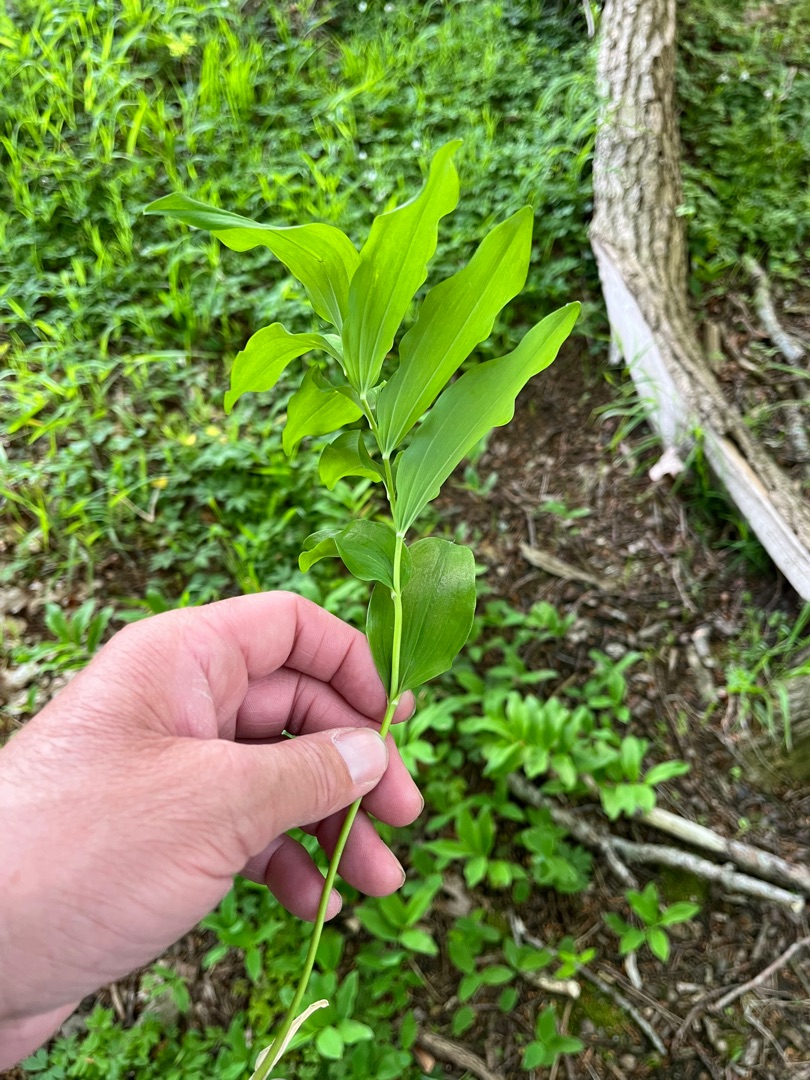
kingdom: Plantae
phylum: Tracheophyta
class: Liliopsida
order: Asparagales
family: Asparagaceae
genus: Polygonatum
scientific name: Polygonatum multiflorum
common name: Stor konval
